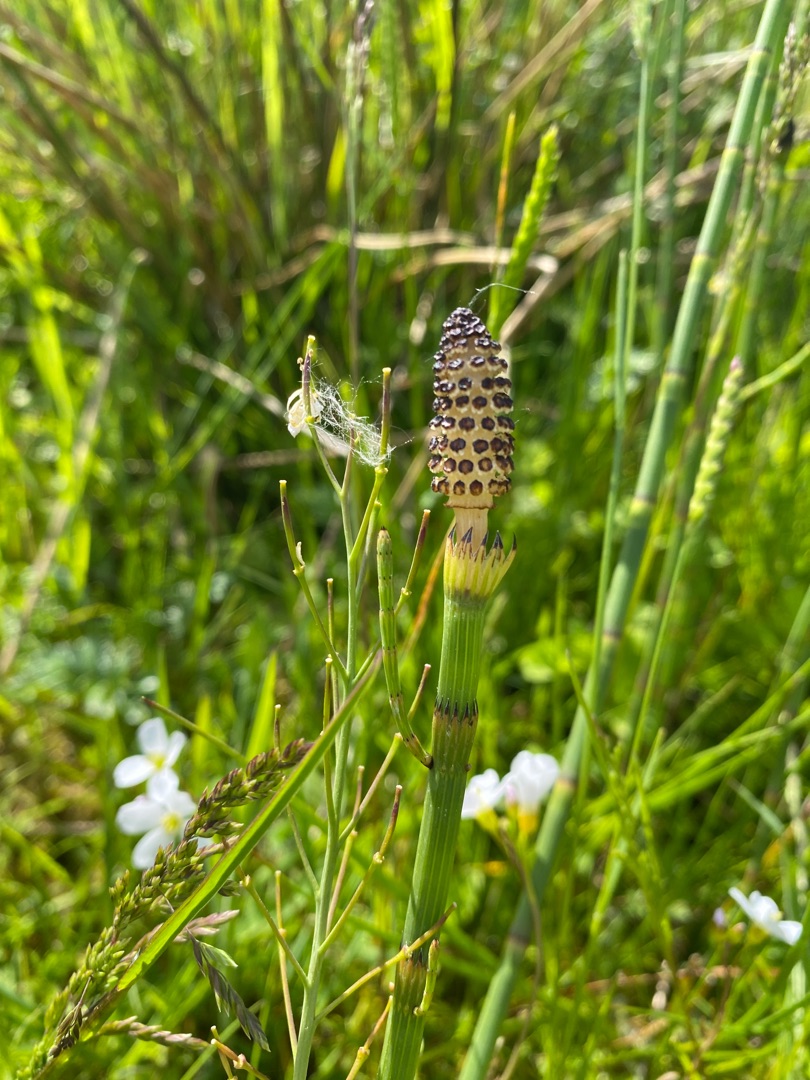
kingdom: Plantae
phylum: Tracheophyta
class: Polypodiopsida
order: Equisetales
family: Equisetaceae
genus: Equisetum
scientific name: Equisetum fluviatile
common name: Dynd-padderok
